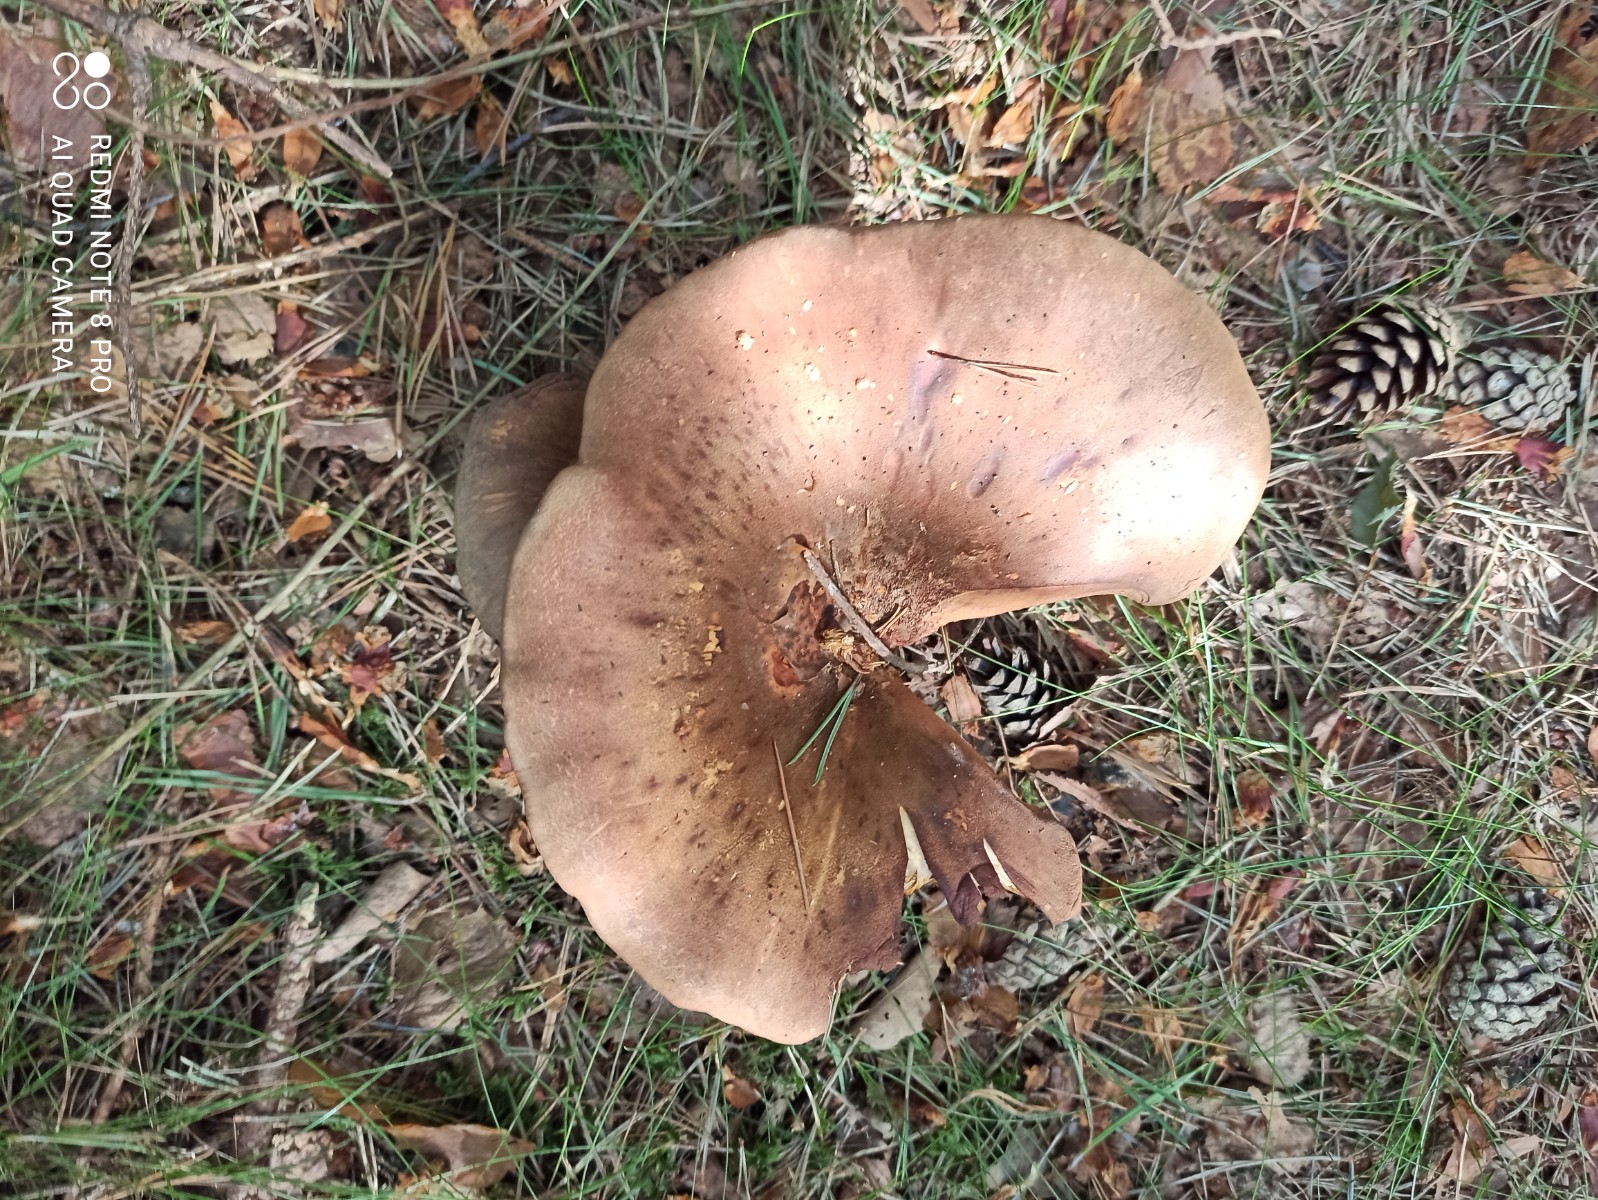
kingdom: Fungi
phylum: Basidiomycota
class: Agaricomycetes
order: Boletales
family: Tapinellaceae
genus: Tapinella
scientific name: Tapinella atrotomentosa
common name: sortfiltet viftesvamp
